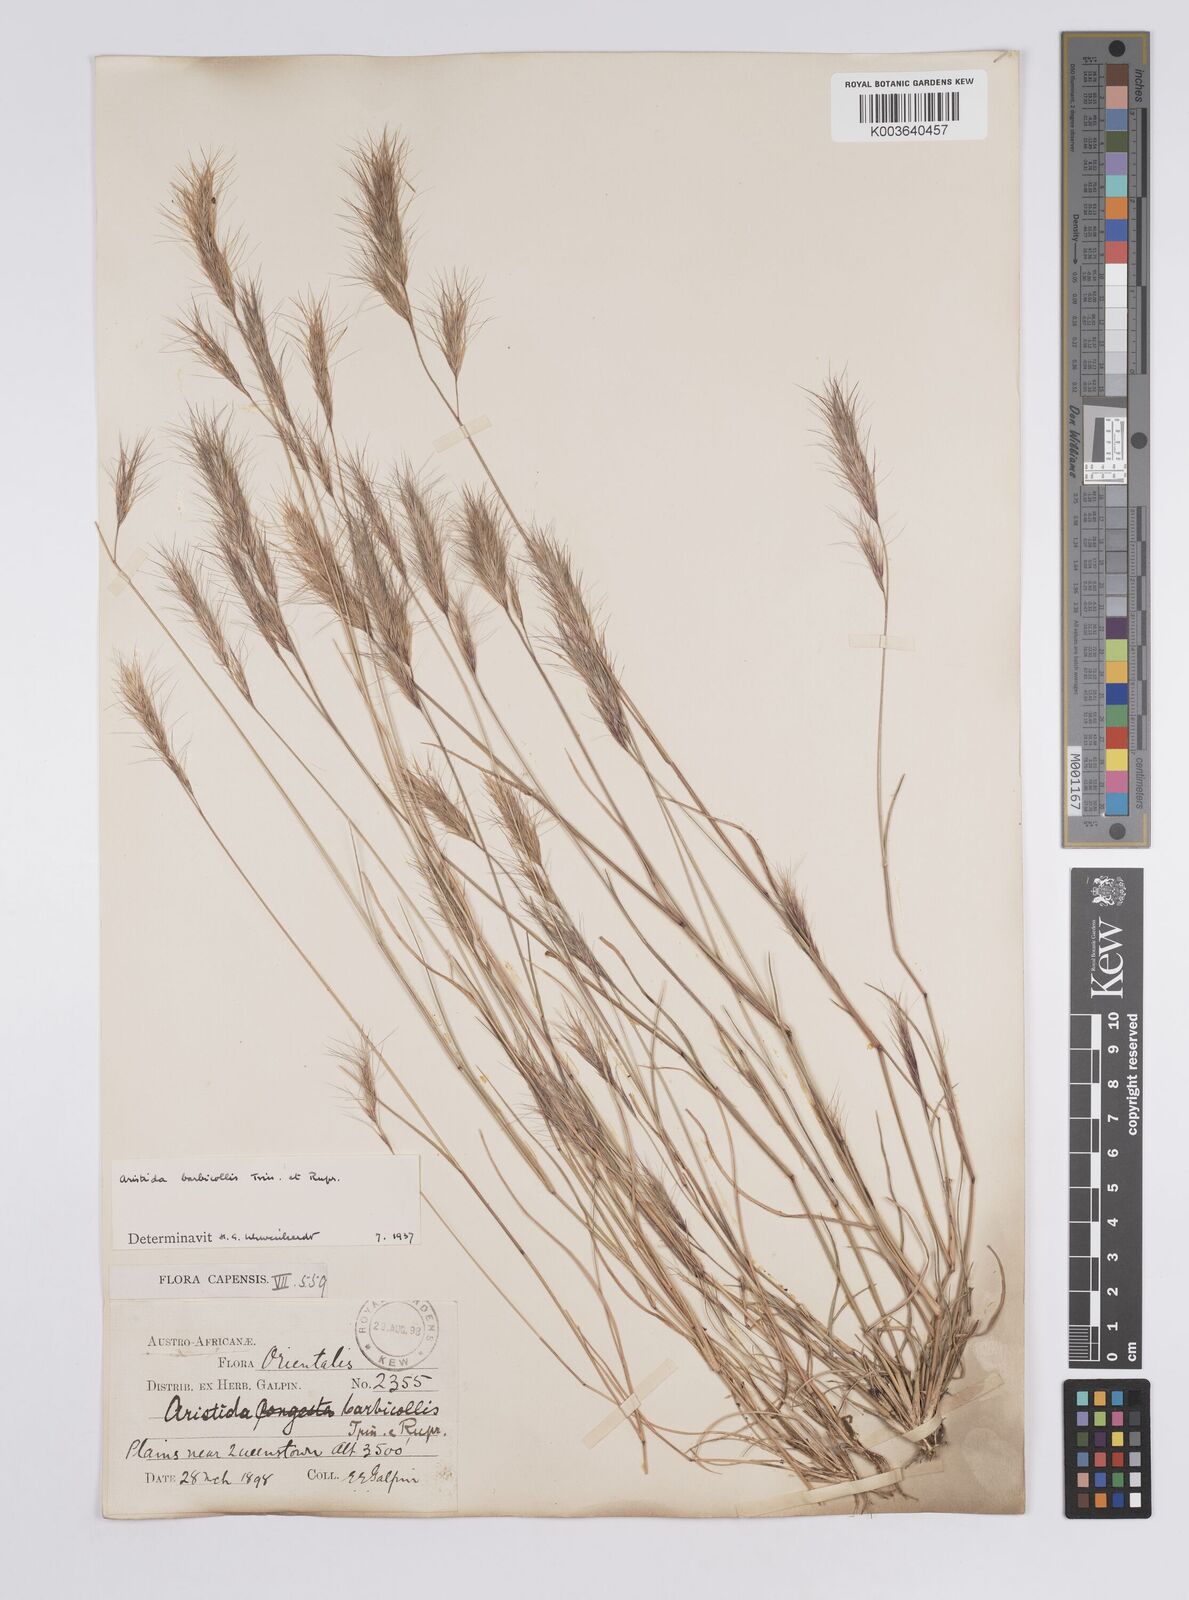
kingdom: Plantae
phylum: Tracheophyta
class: Liliopsida
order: Poales
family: Poaceae
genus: Aristida
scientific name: Aristida barbicollis
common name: Spreading prickle grass
